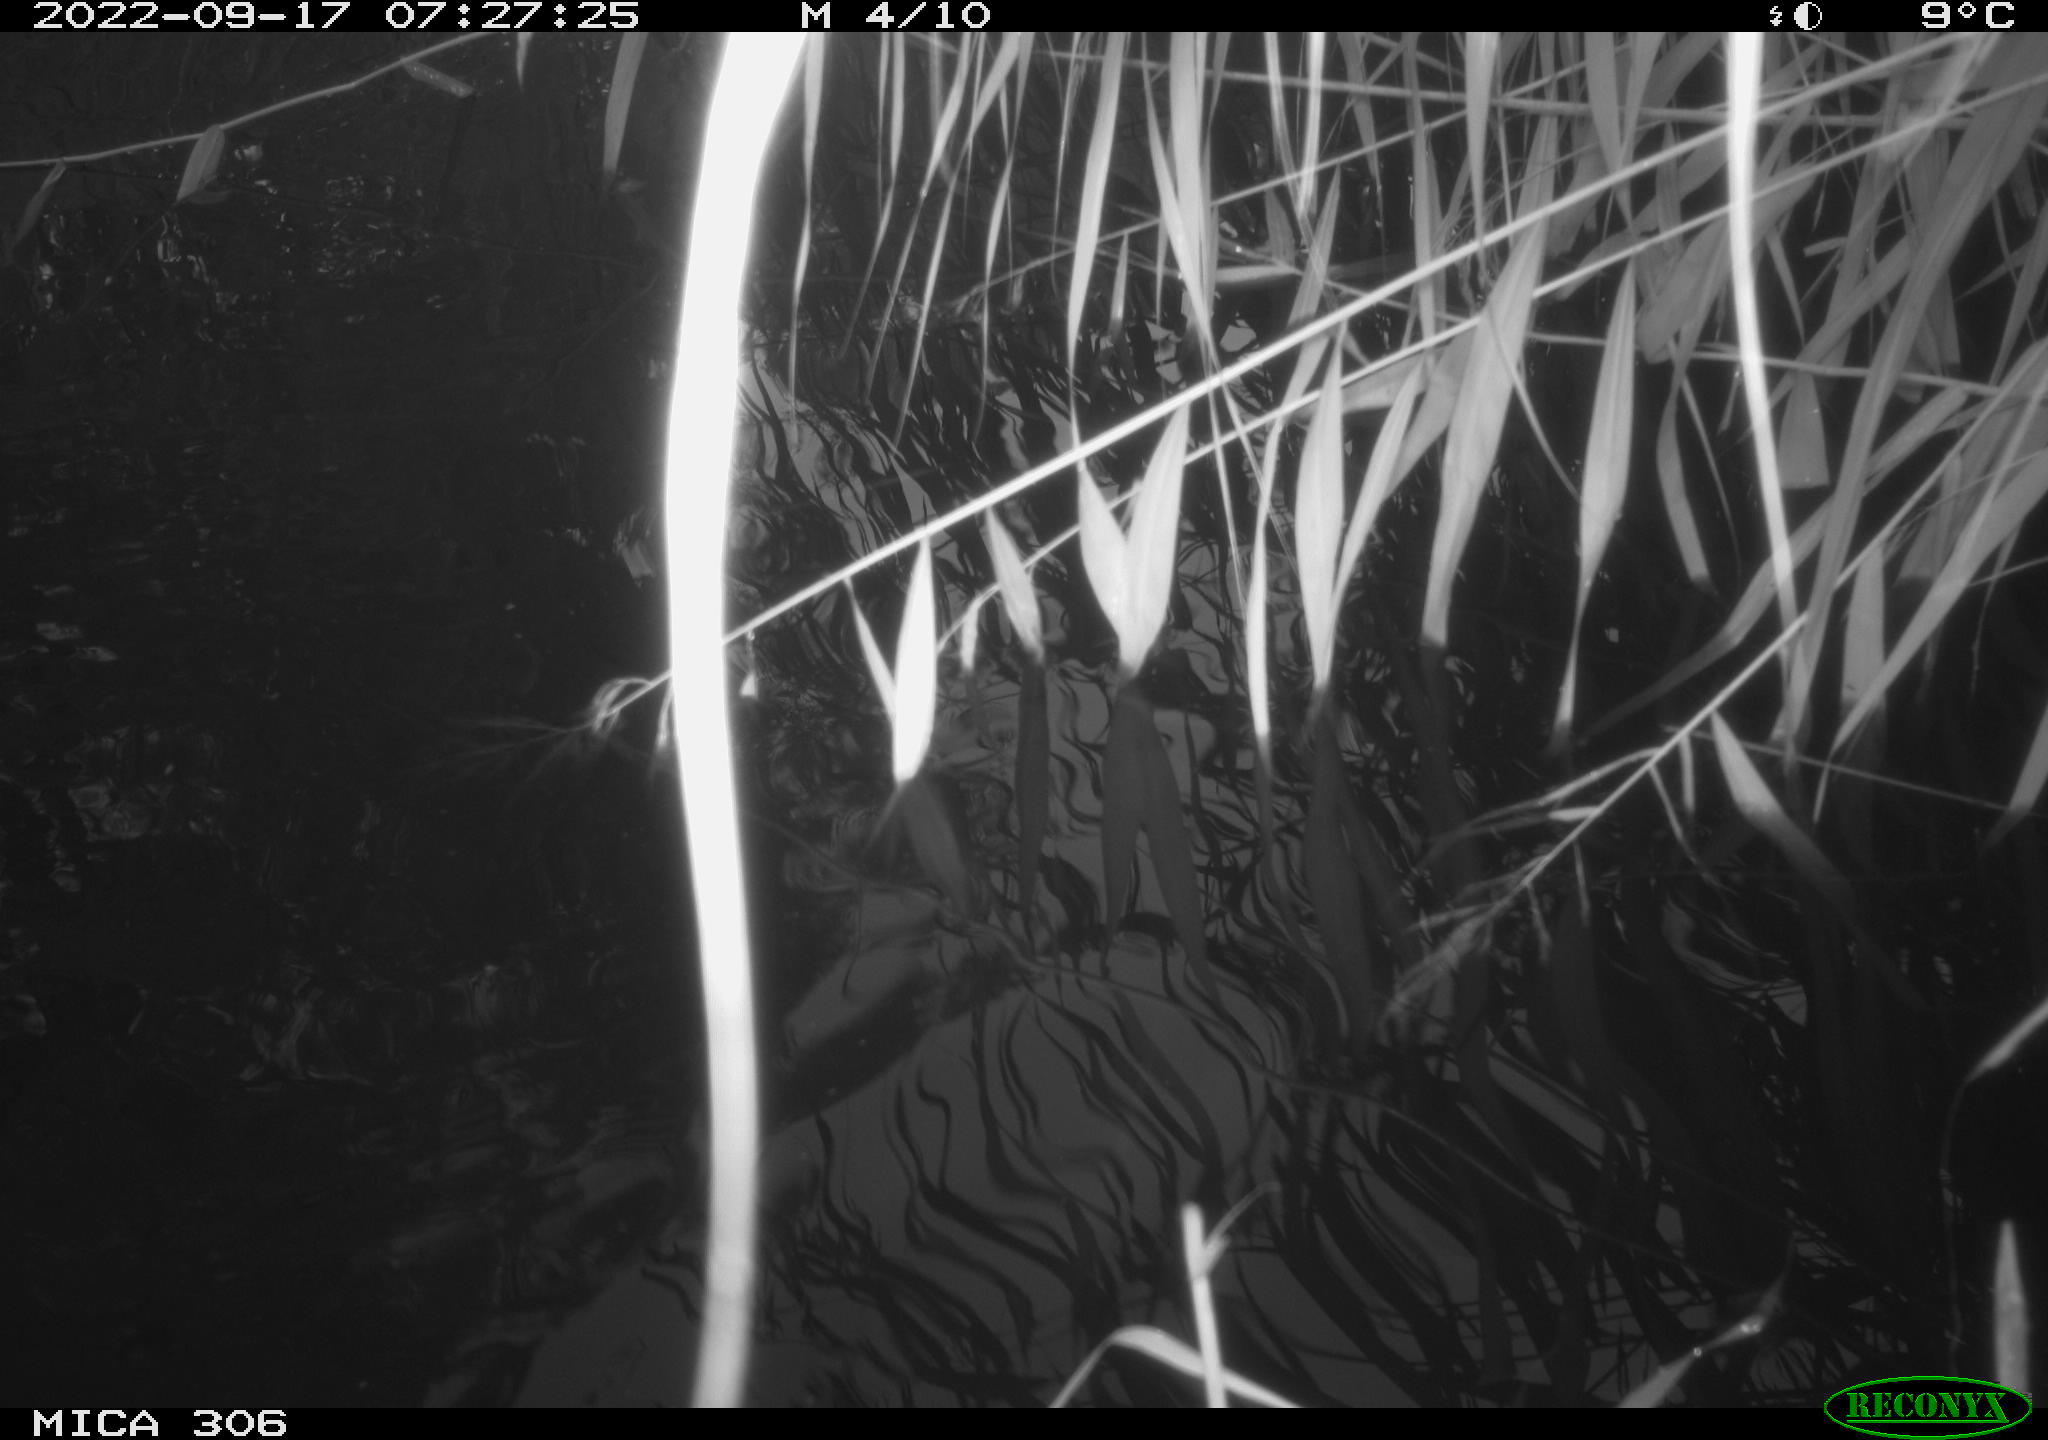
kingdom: Animalia
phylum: Chordata
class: Aves
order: Gruiformes
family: Rallidae
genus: Gallinula
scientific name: Gallinula chloropus
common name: Common moorhen
